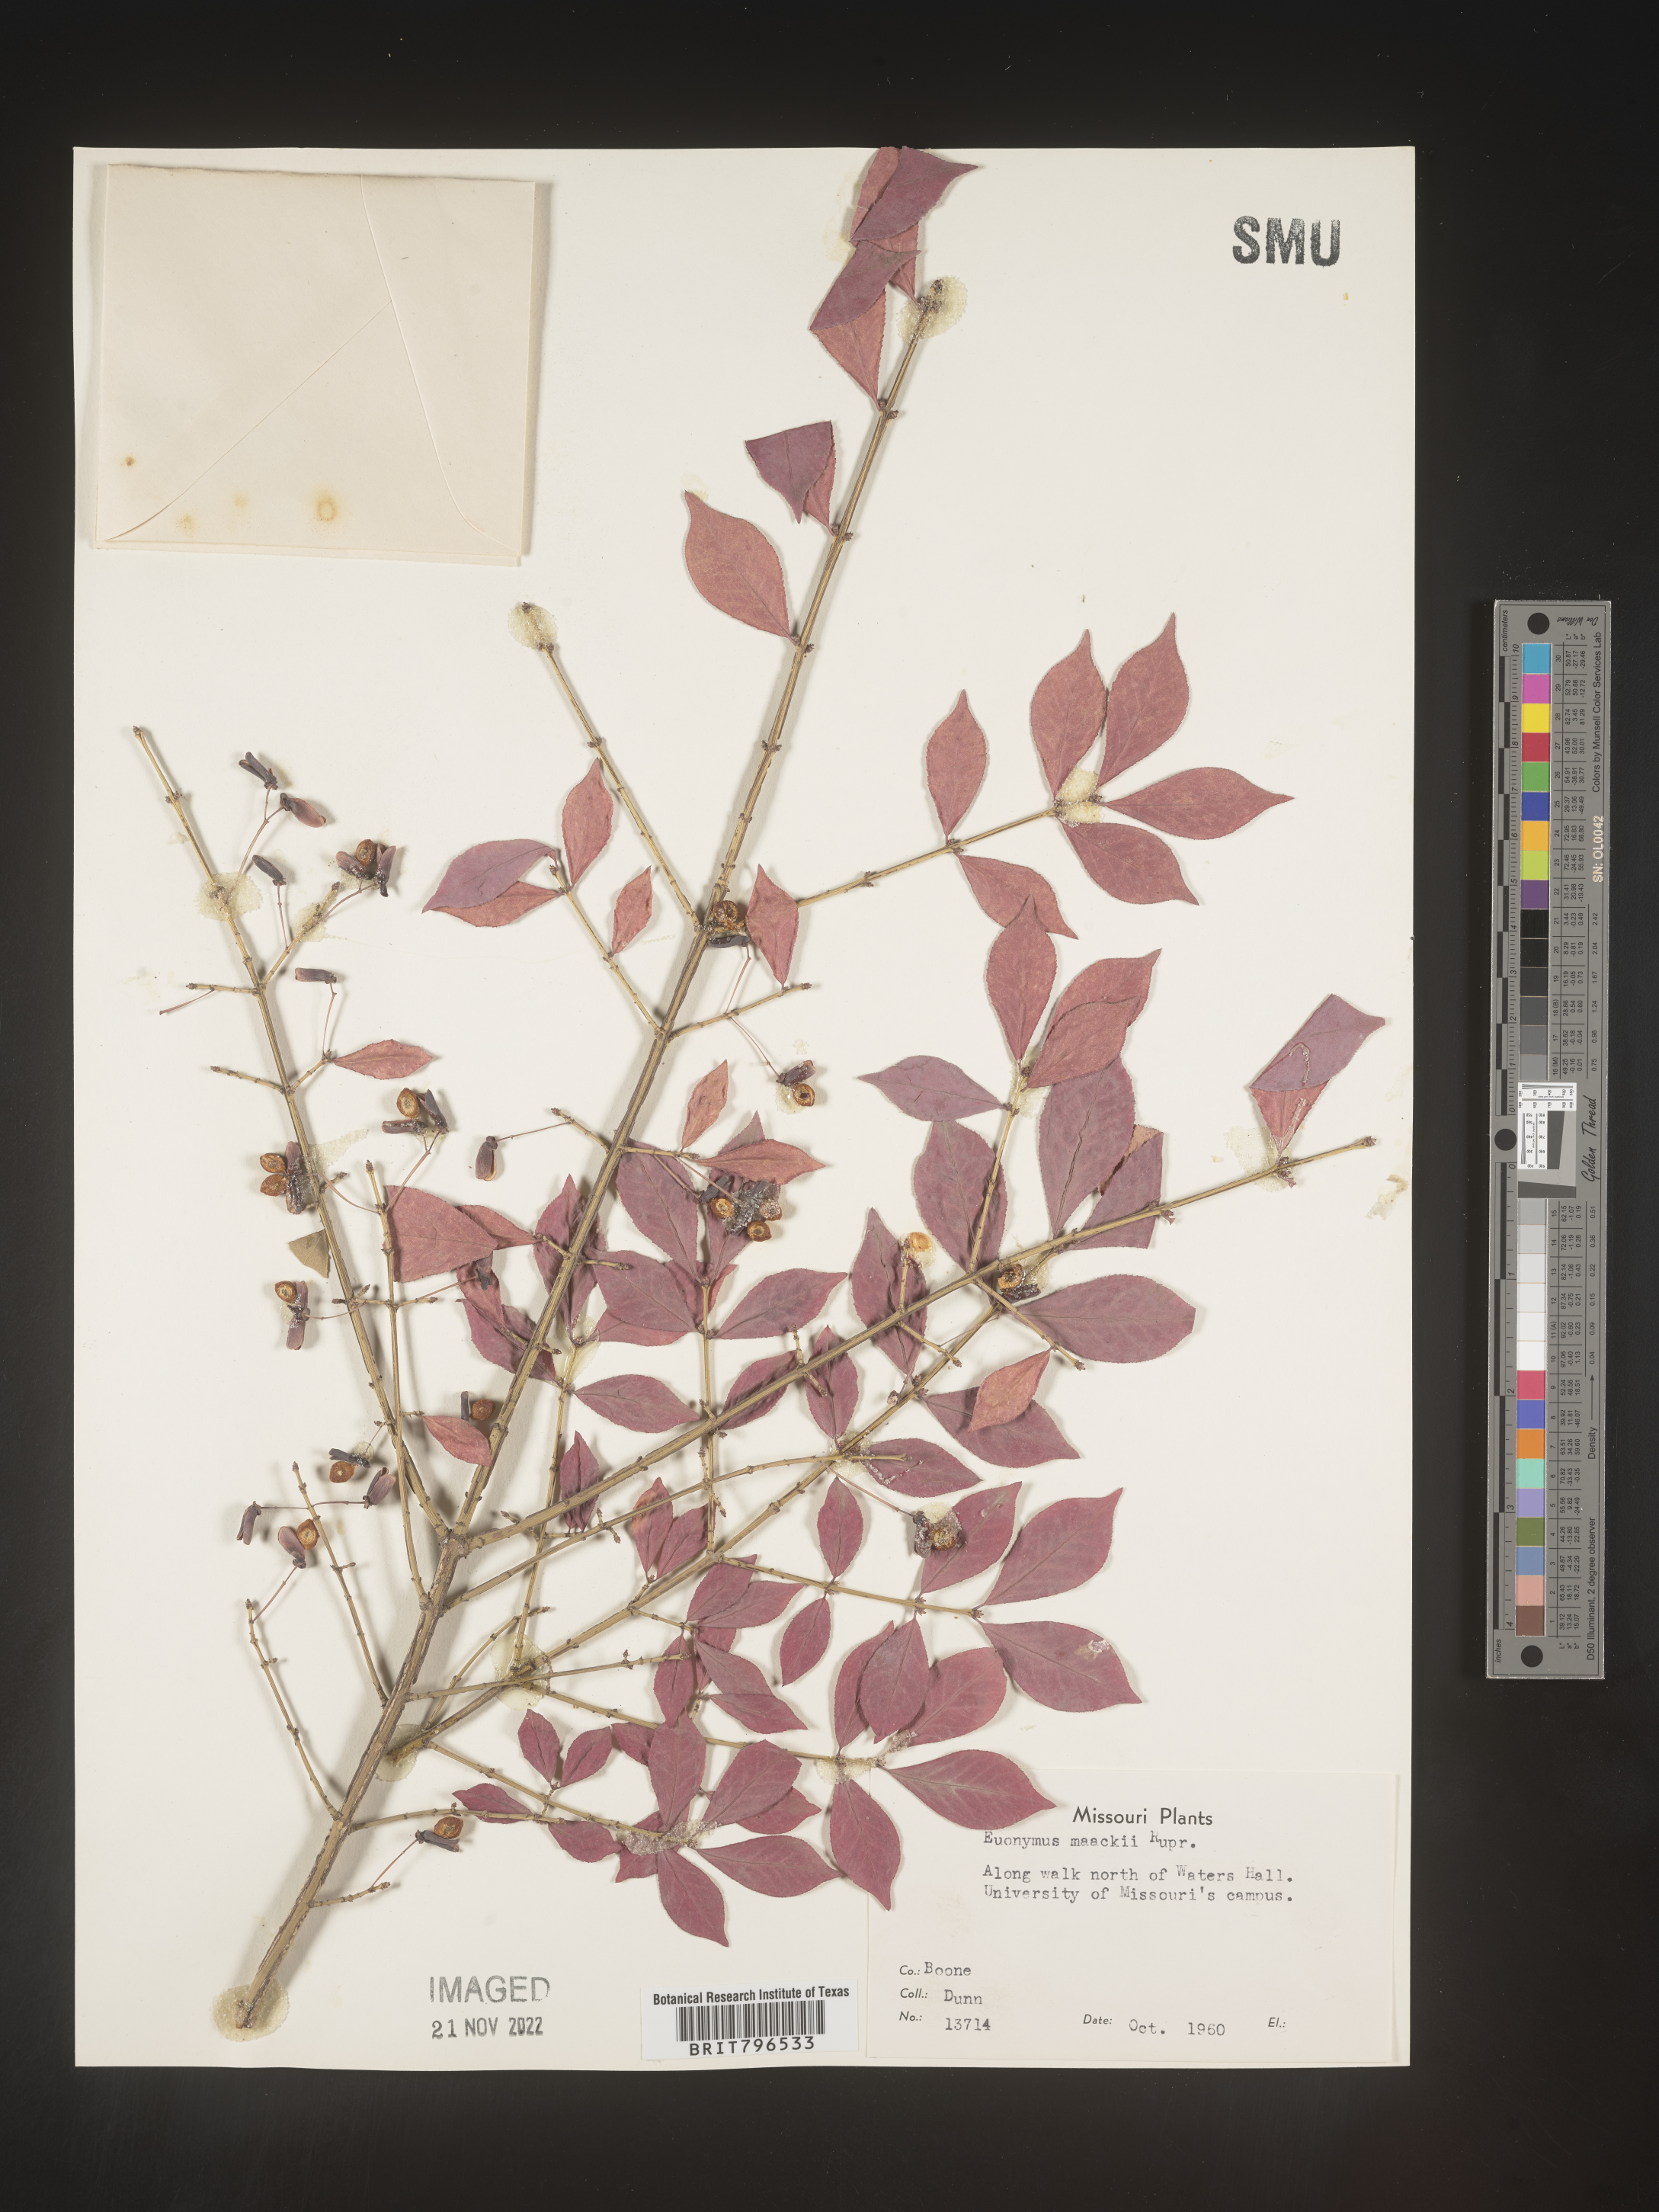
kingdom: Plantae
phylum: Tracheophyta
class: Magnoliopsida
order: Celastrales
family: Celastraceae
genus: Euonymus
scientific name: Euonymus
